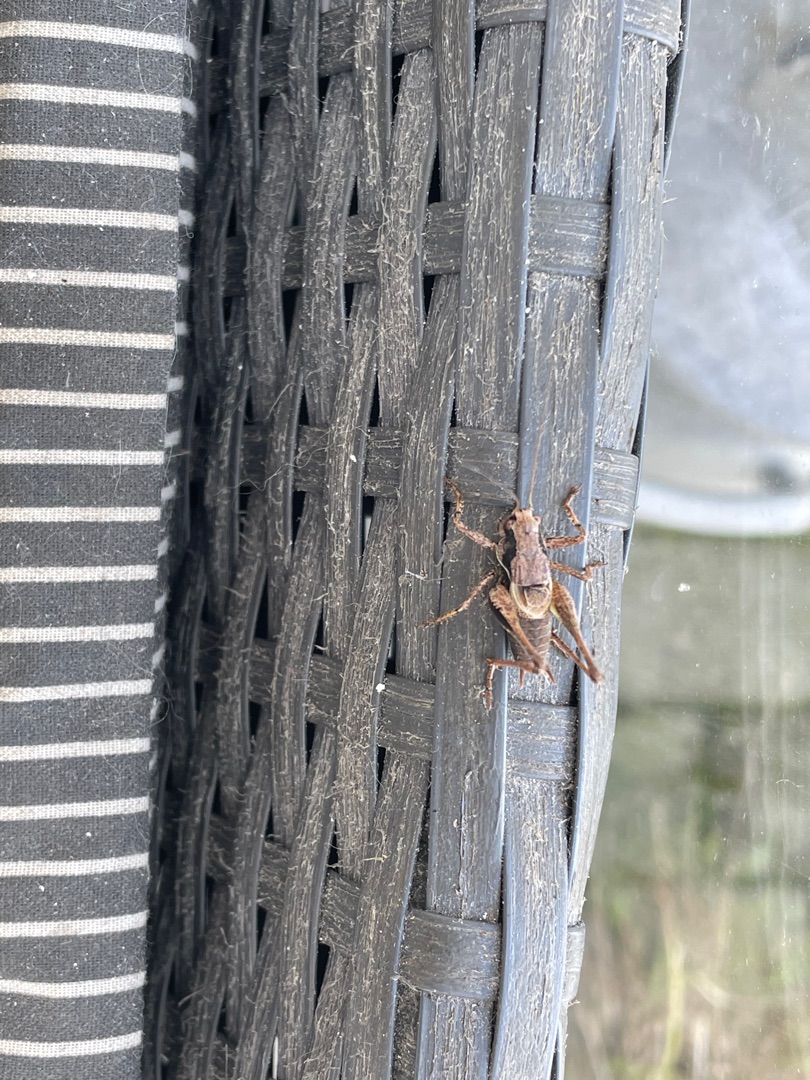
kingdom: Animalia
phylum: Arthropoda
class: Insecta
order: Orthoptera
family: Tettigoniidae
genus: Pholidoptera
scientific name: Pholidoptera griseoaptera
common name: Buskgræshoppe
